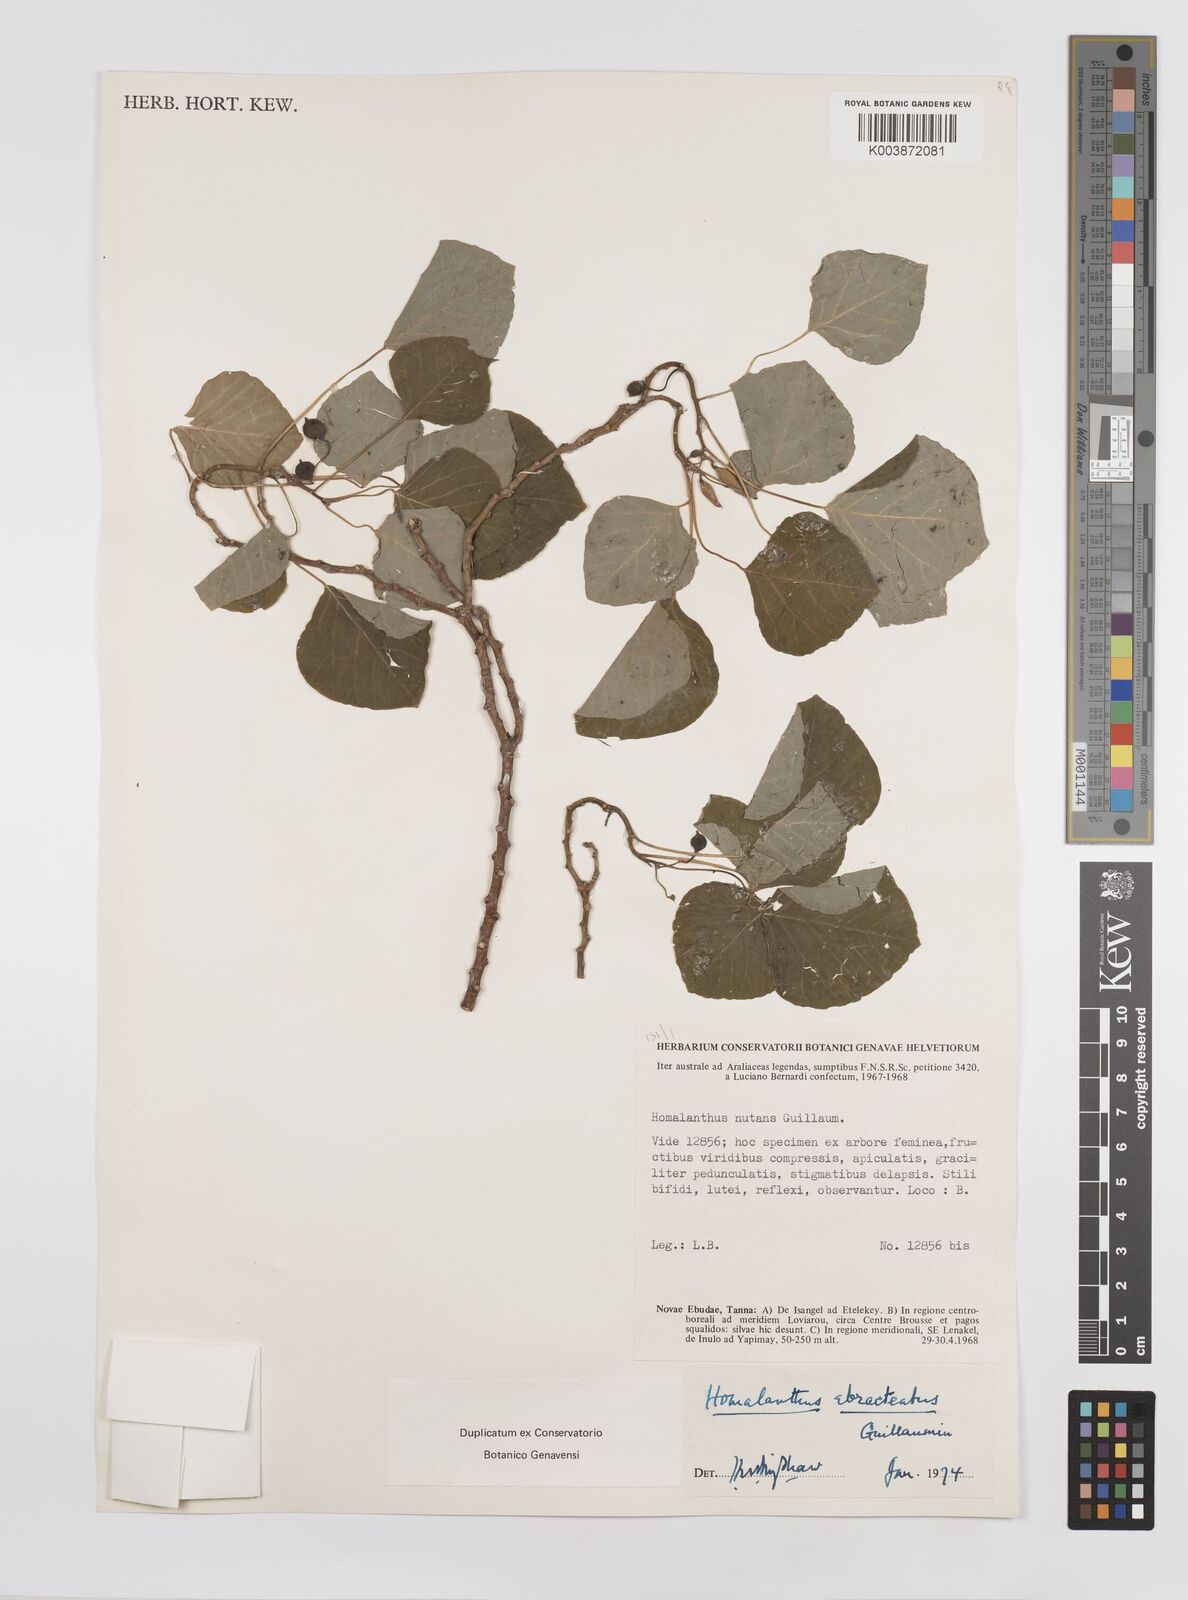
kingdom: Plantae
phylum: Tracheophyta
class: Magnoliopsida
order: Malpighiales
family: Euphorbiaceae
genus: Homalanthus
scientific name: Homalanthus ebracteatua
